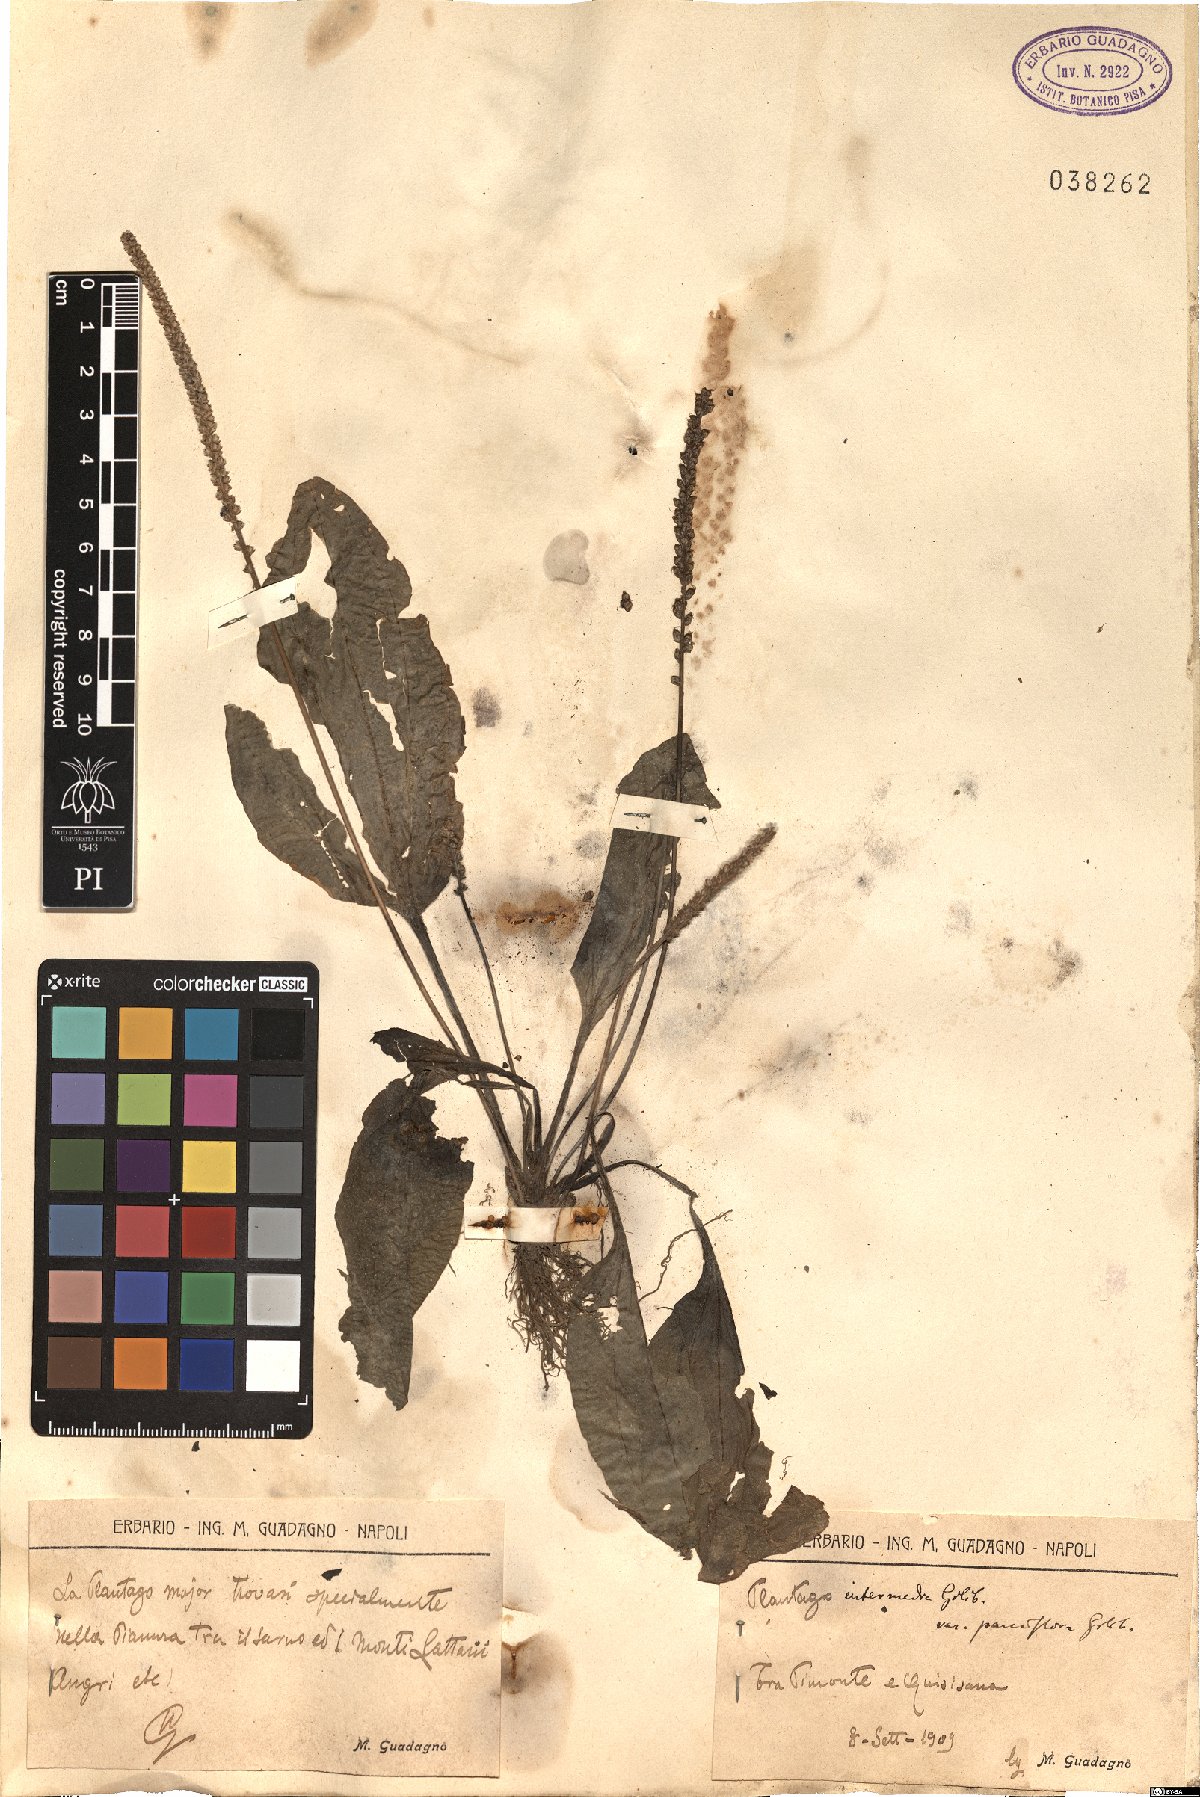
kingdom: Plantae
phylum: Tracheophyta
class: Magnoliopsida
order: Lamiales
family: Plantaginaceae
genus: Plantago
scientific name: Plantago intermedia
